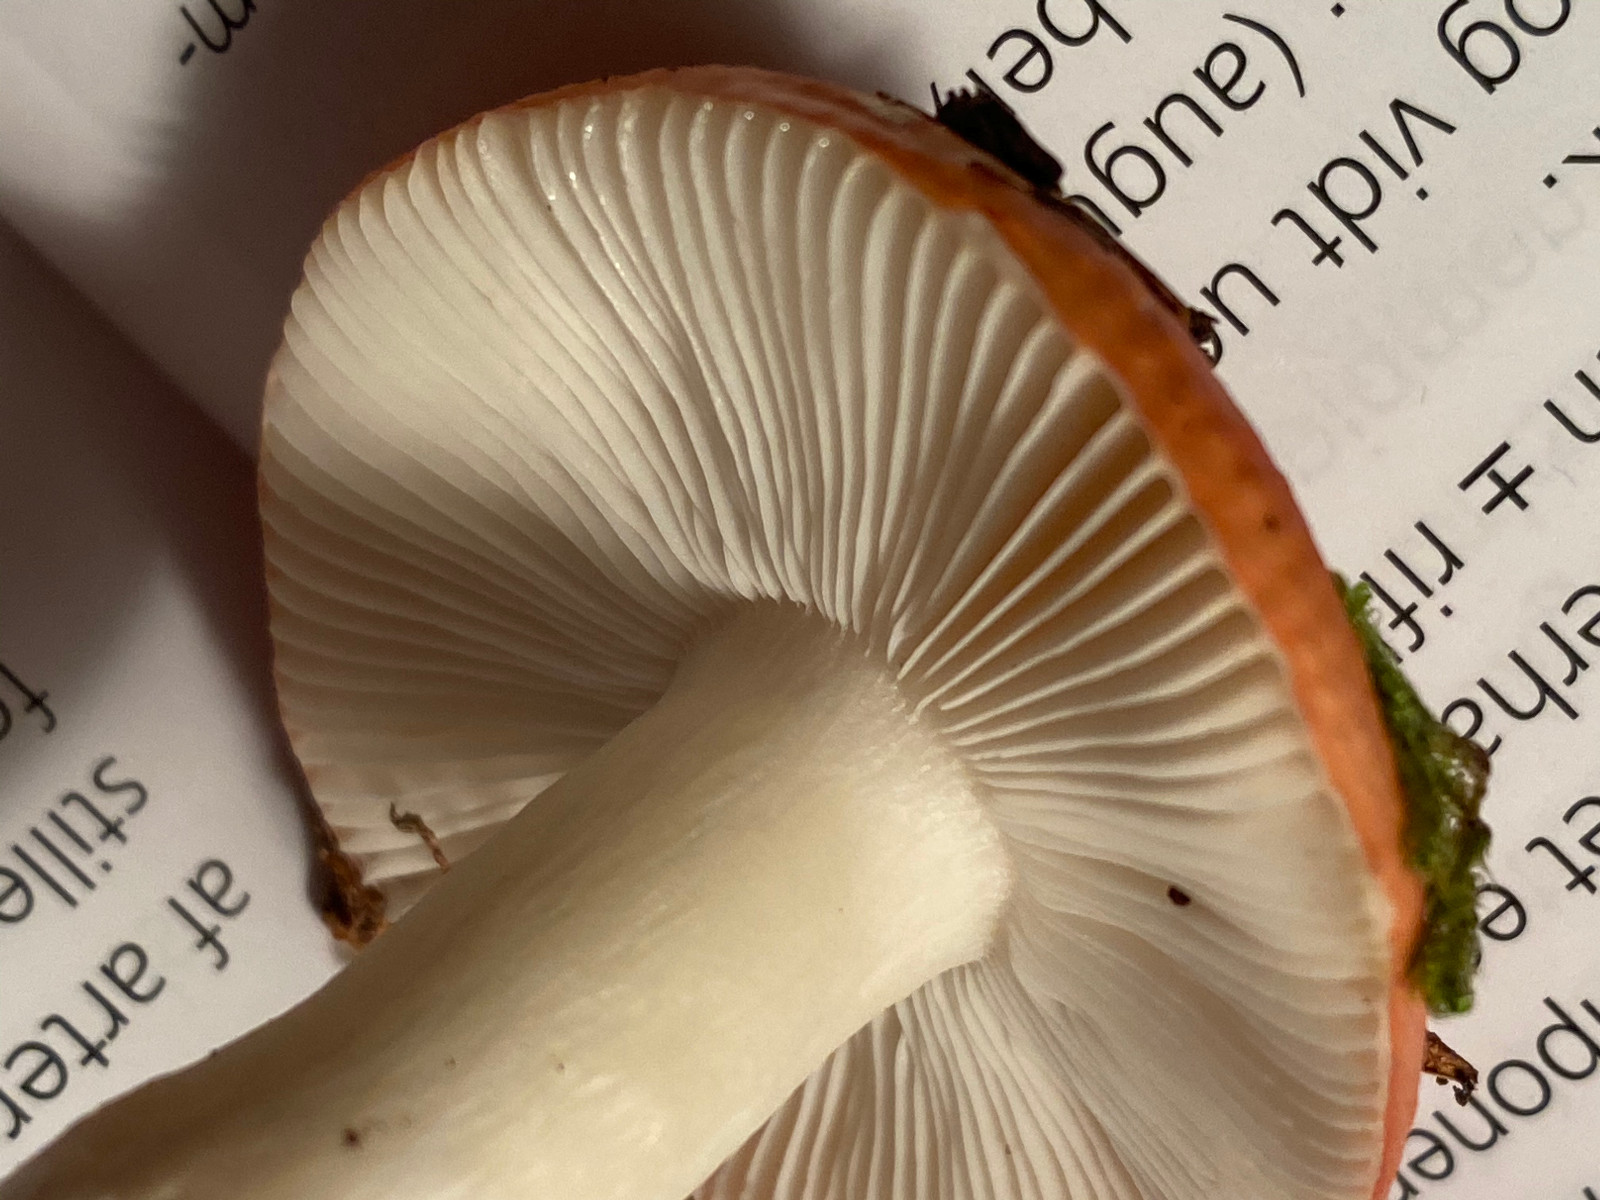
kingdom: Fungi
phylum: Basidiomycota
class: Agaricomycetes
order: Russulales
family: Russulaceae
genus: Russula
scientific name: Russula silvestris
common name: mellemstor gift-skørhat
